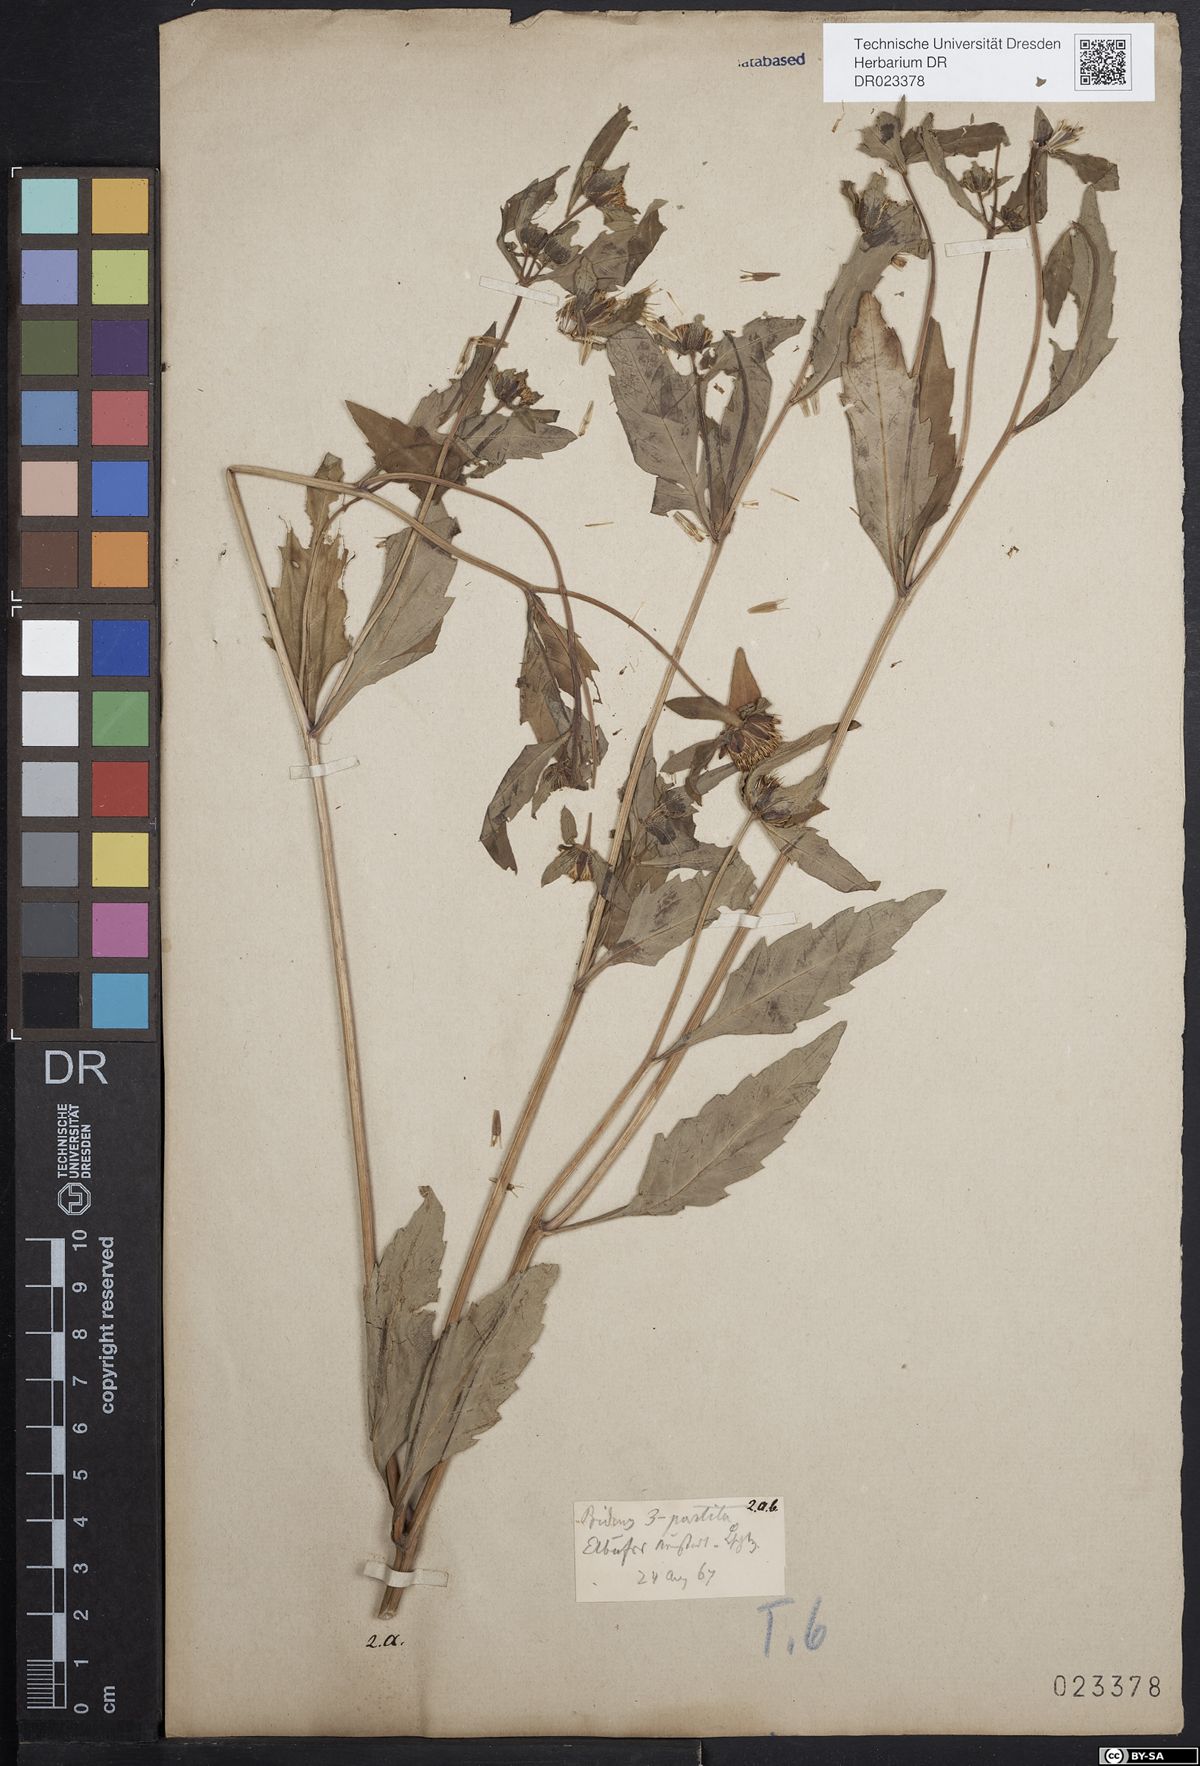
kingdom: Plantae
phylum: Tracheophyta
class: Magnoliopsida
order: Asterales
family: Asteraceae
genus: Bidens
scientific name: Bidens tripartita
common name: Trifid bur-marigold
